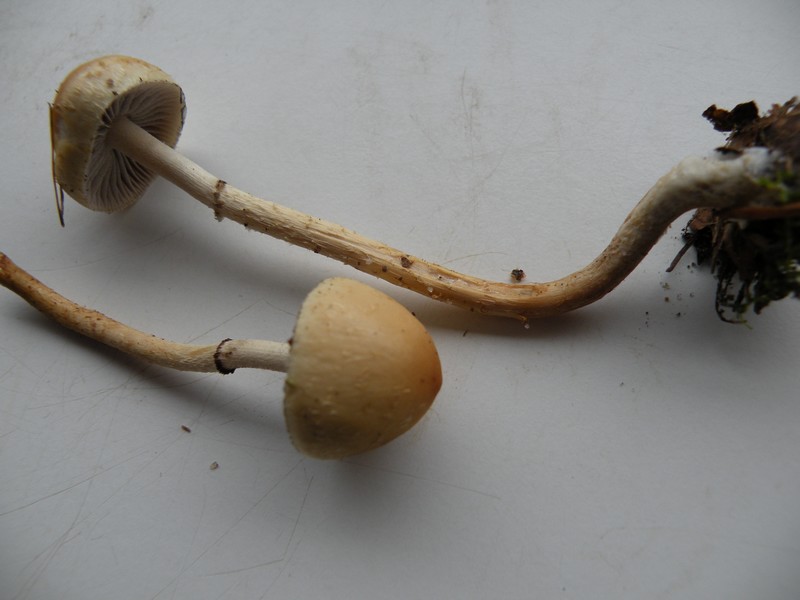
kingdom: Fungi
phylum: Basidiomycota
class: Agaricomycetes
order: Agaricales
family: Strophariaceae
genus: Leratiomyces
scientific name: Leratiomyces squamosus
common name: skællet bredblad
